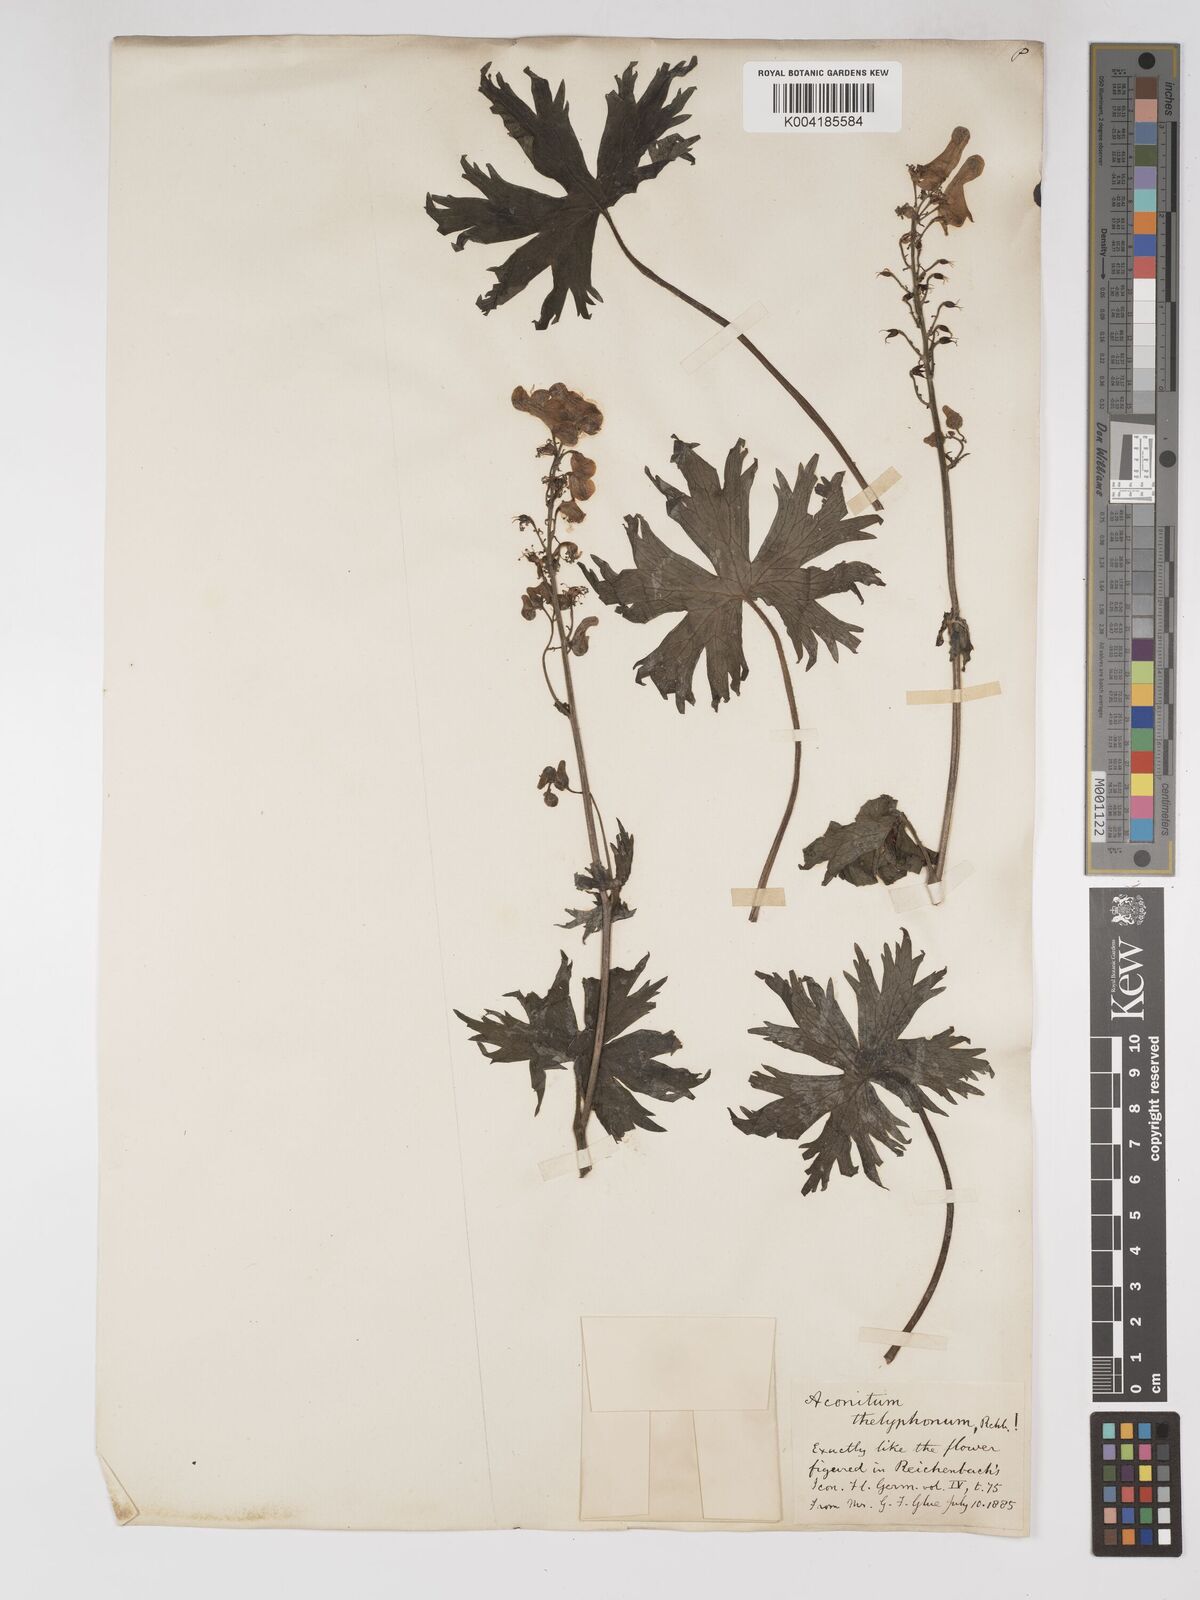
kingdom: Plantae
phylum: Tracheophyta
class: Magnoliopsida
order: Ranunculales
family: Ranunculaceae
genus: Aconitum
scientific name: Aconitum lycoctonum
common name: Wolf's-bane
